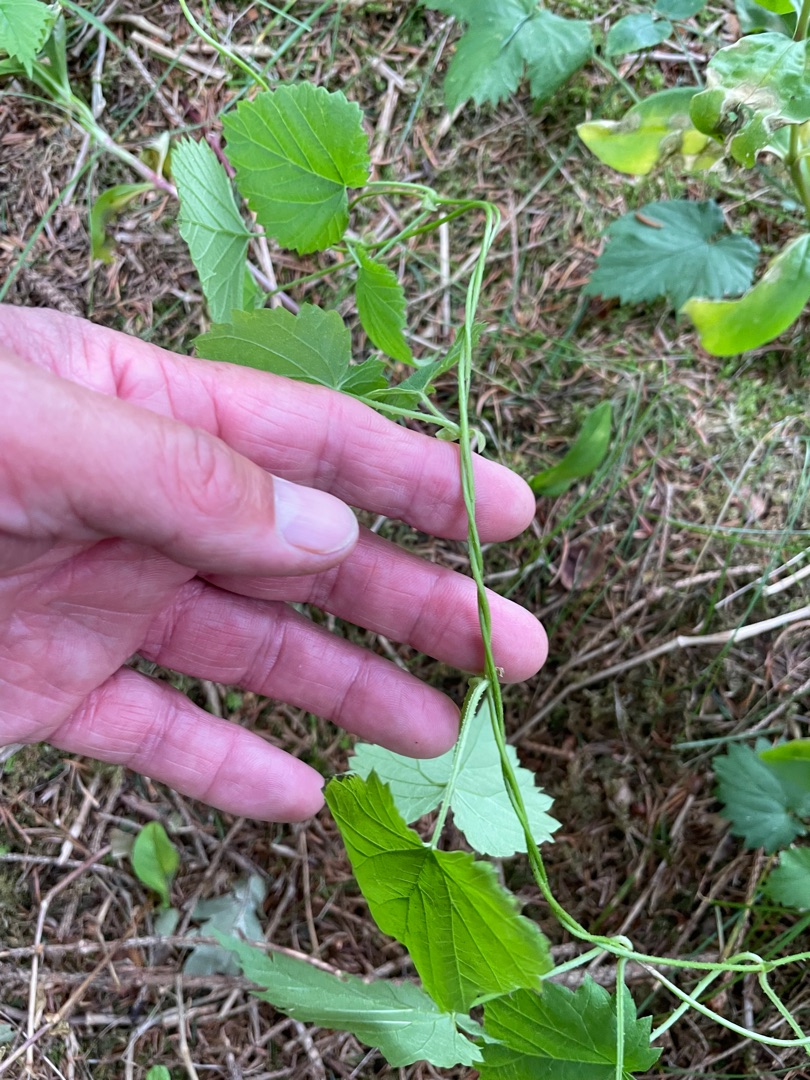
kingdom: Plantae
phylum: Tracheophyta
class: Magnoliopsida
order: Rosales
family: Cannabaceae
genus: Humulus
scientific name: Humulus lupulus
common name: Humle
